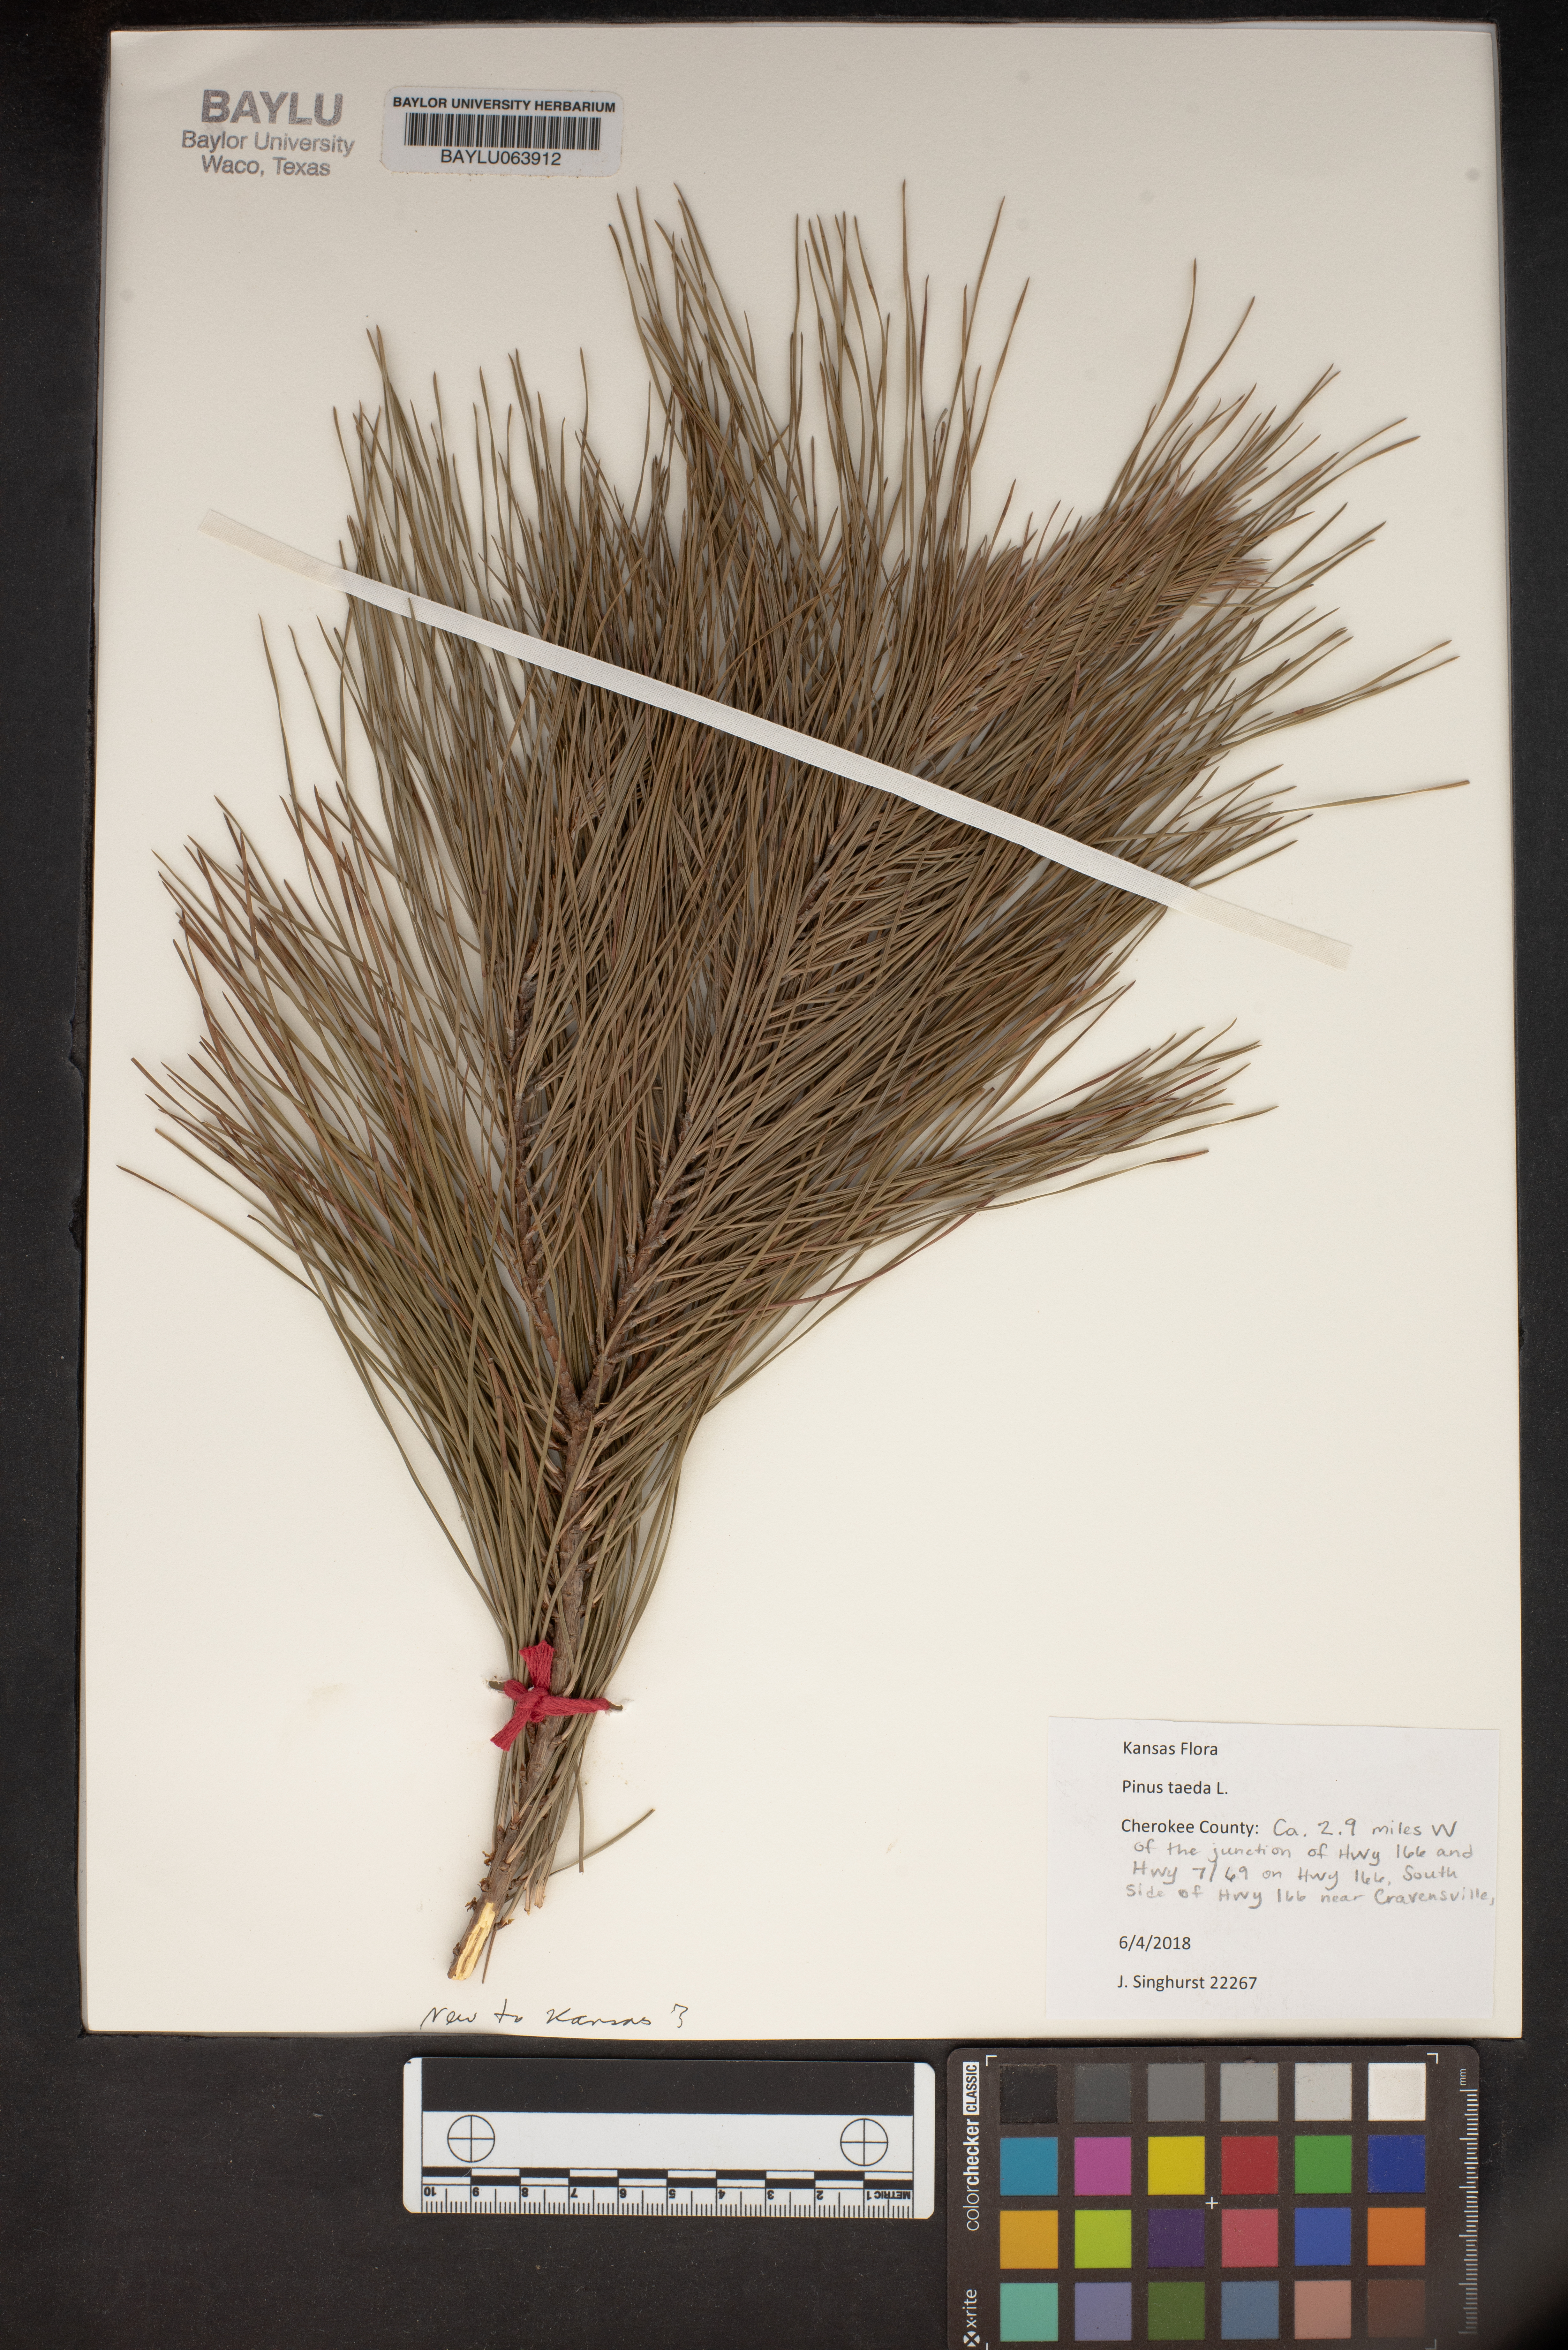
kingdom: Plantae
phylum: Tracheophyta
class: Pinopsida
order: Pinales
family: Pinaceae
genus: Pinus
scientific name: Pinus taeda
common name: Loblolly pine
